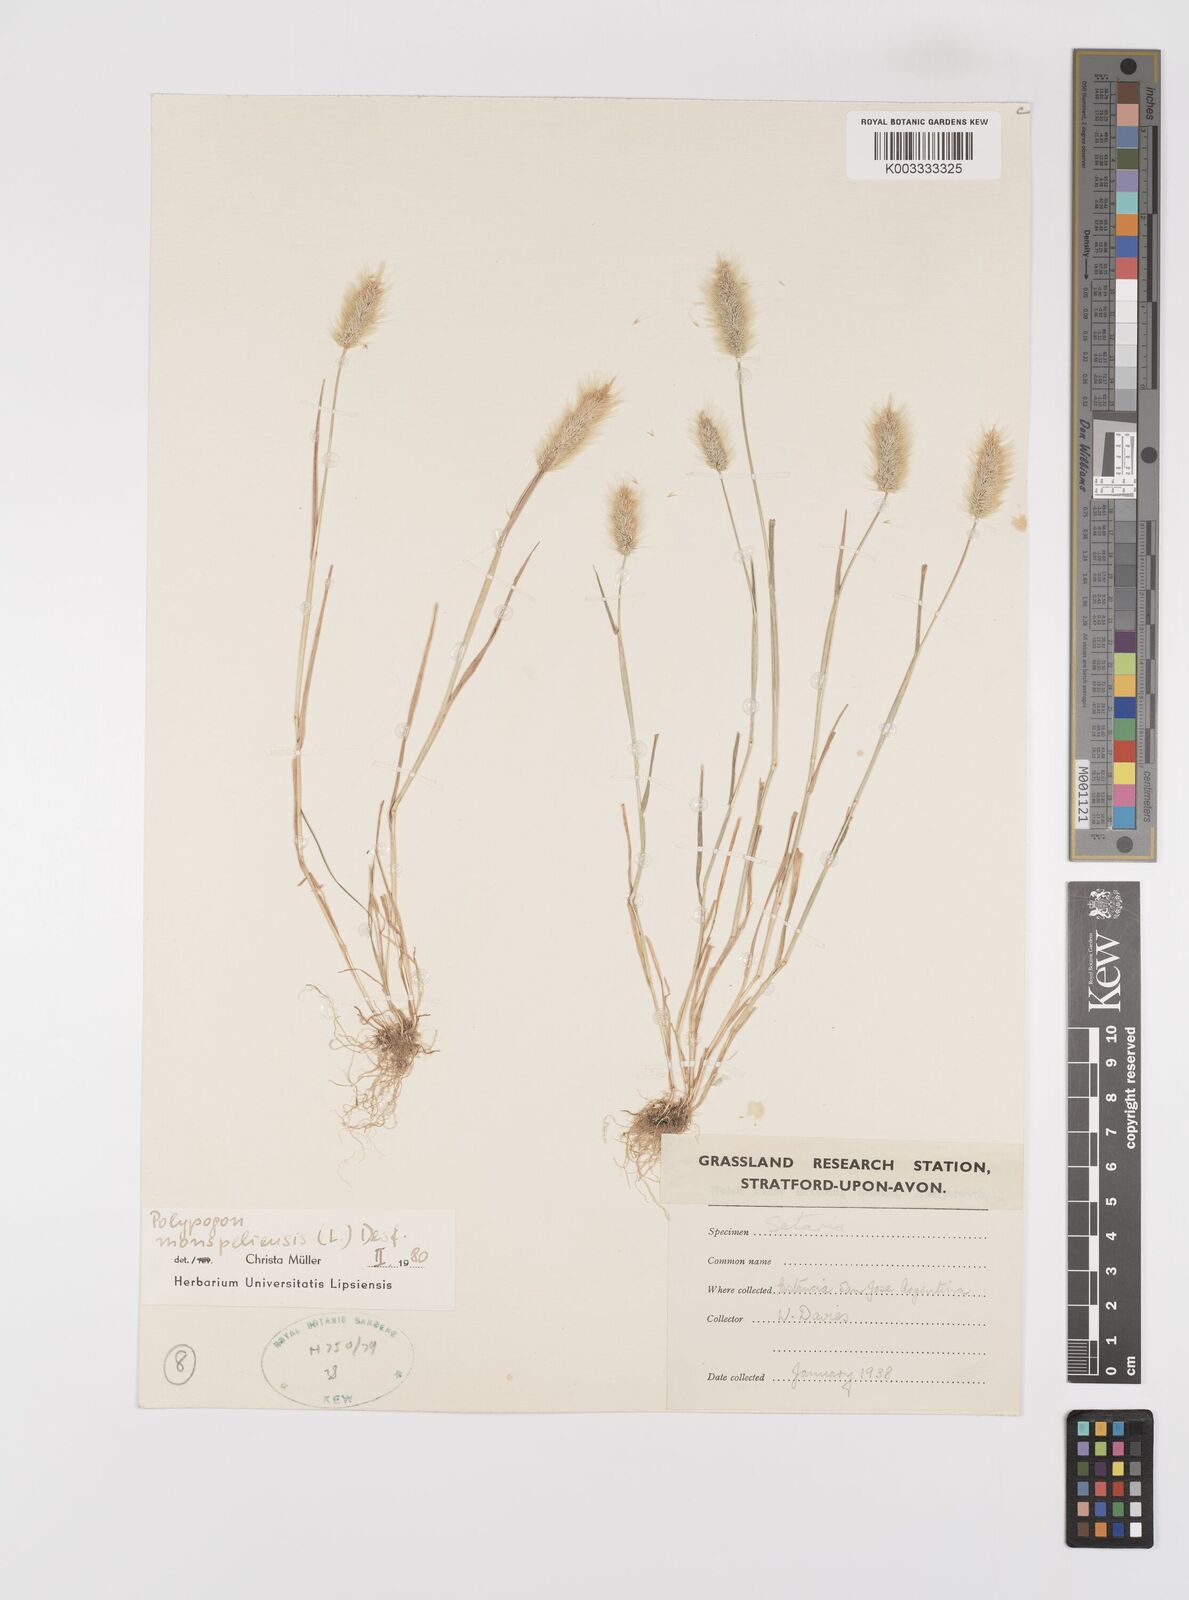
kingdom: Plantae
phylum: Tracheophyta
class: Liliopsida
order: Poales
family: Poaceae
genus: Polypogon
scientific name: Polypogon monspeliensis
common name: Annual rabbitsfoot grass
